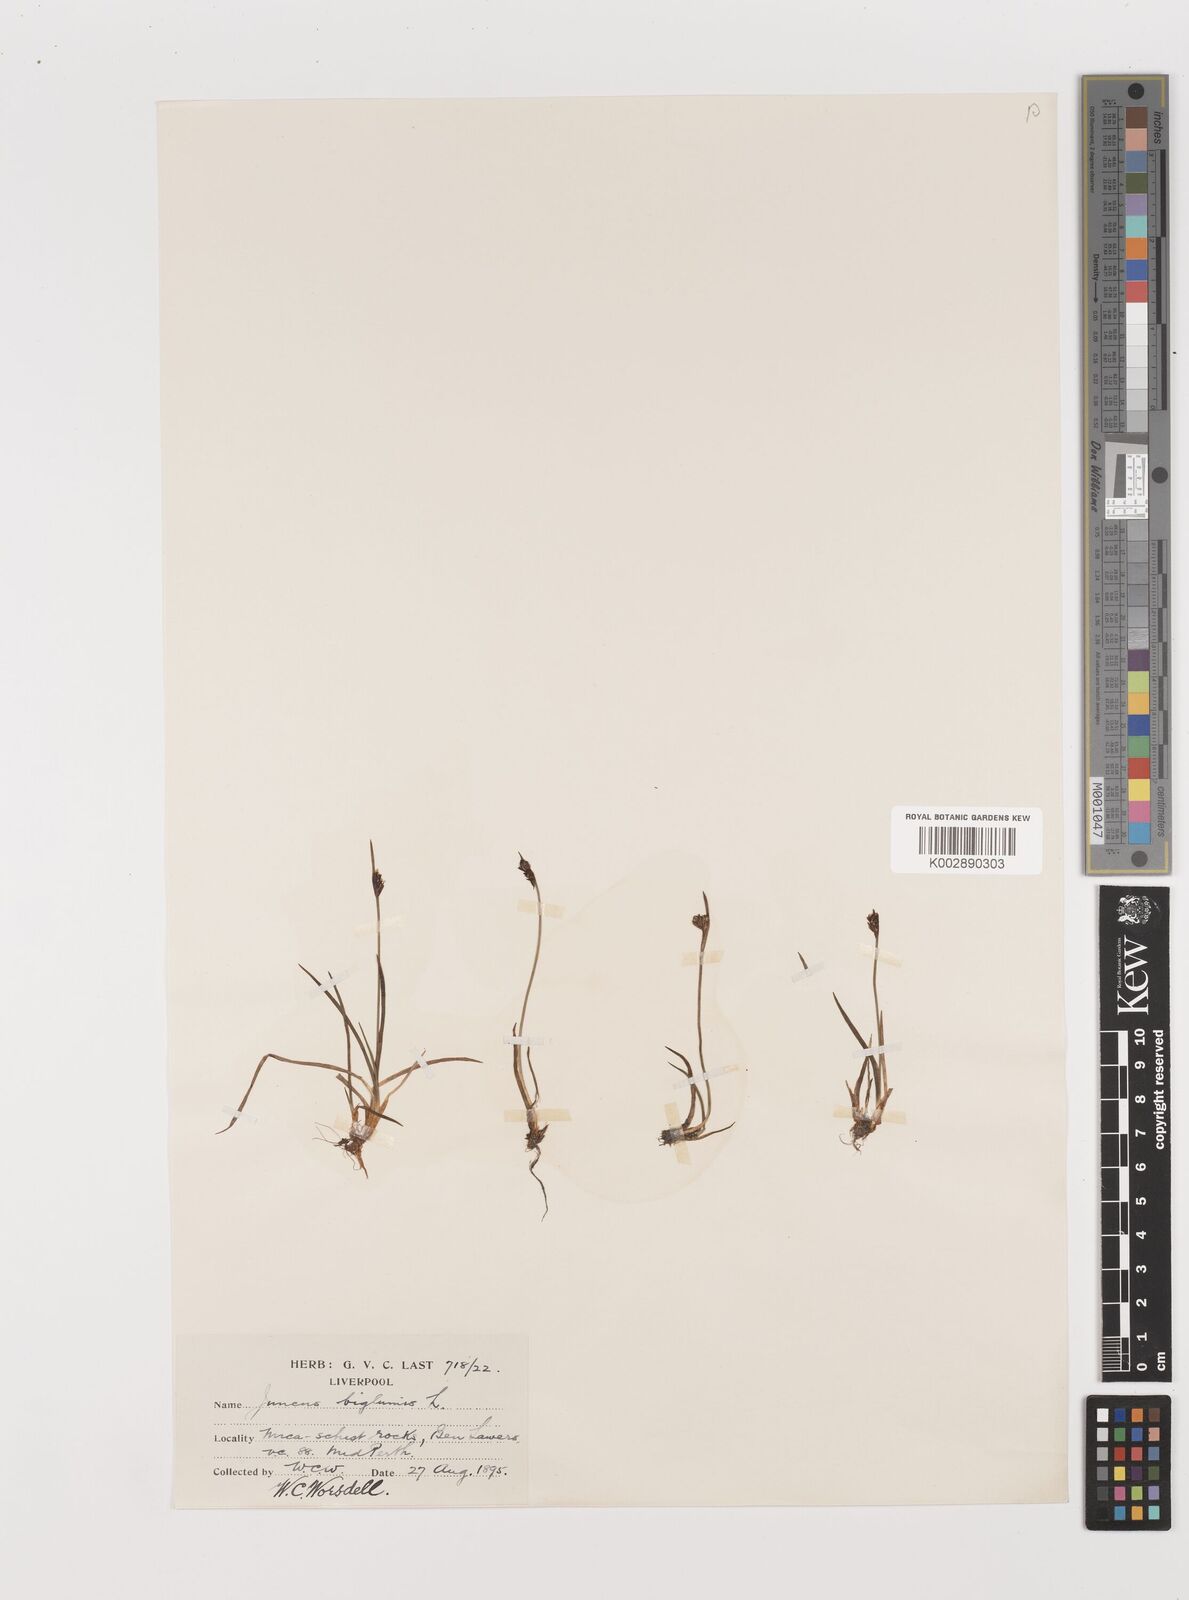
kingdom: Plantae
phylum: Tracheophyta
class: Liliopsida
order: Poales
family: Juncaceae
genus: Juncus
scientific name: Juncus biglumis
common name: Two-flowered rush
